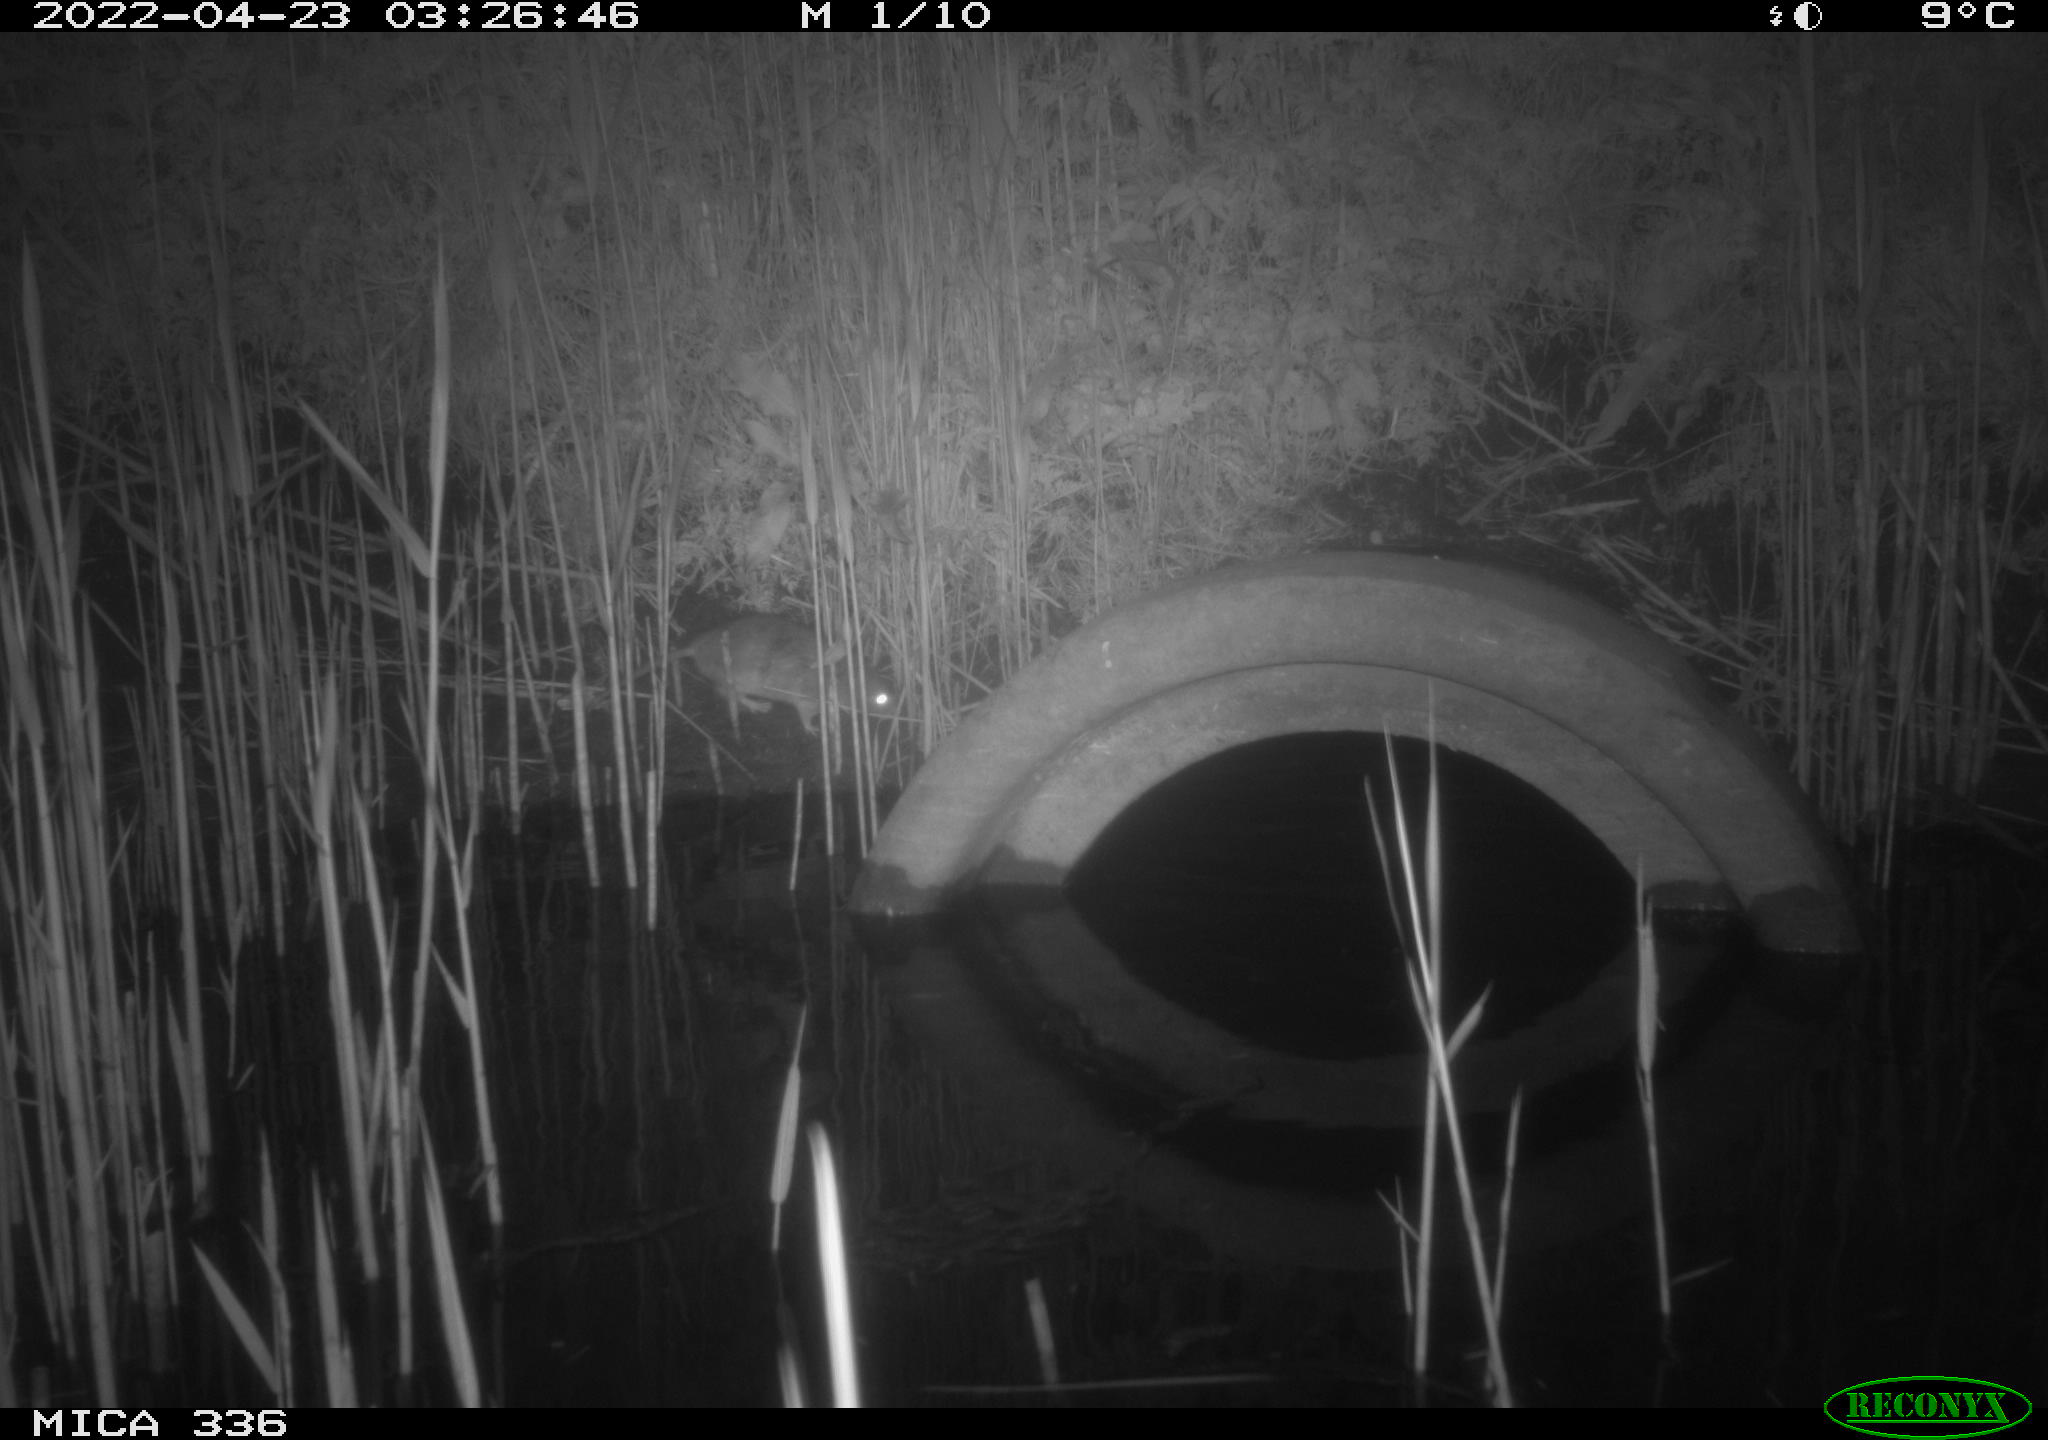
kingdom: Animalia
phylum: Chordata
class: Mammalia
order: Rodentia
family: Muridae
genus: Rattus
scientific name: Rattus norvegicus
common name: Brown rat
